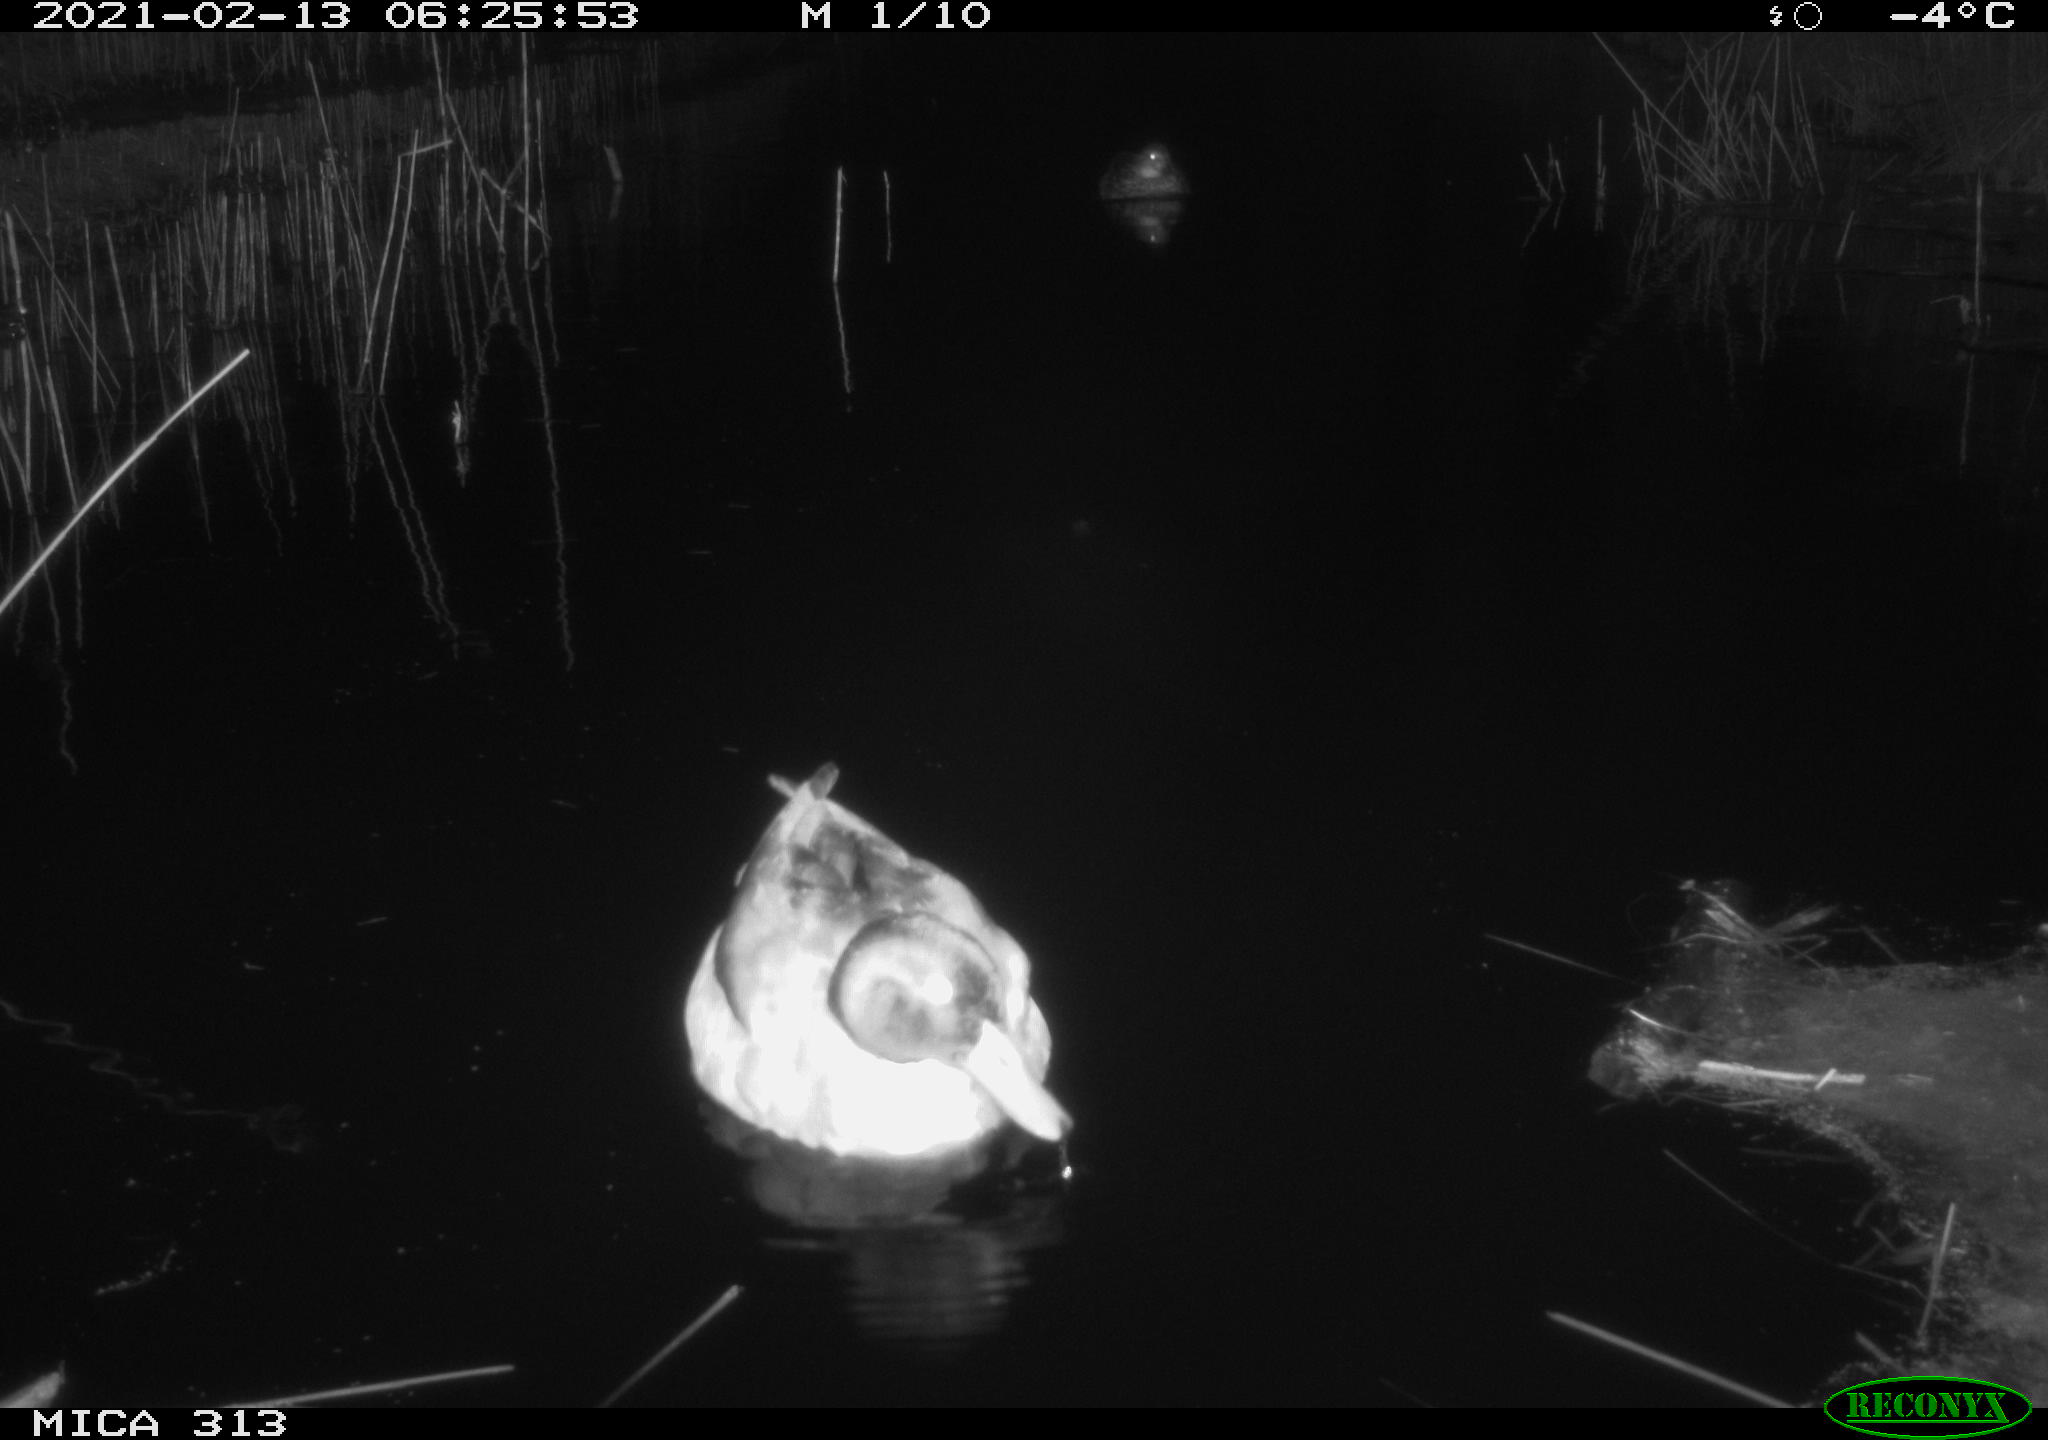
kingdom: Animalia
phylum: Chordata
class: Aves
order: Anseriformes
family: Anatidae
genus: Anas
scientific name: Anas
